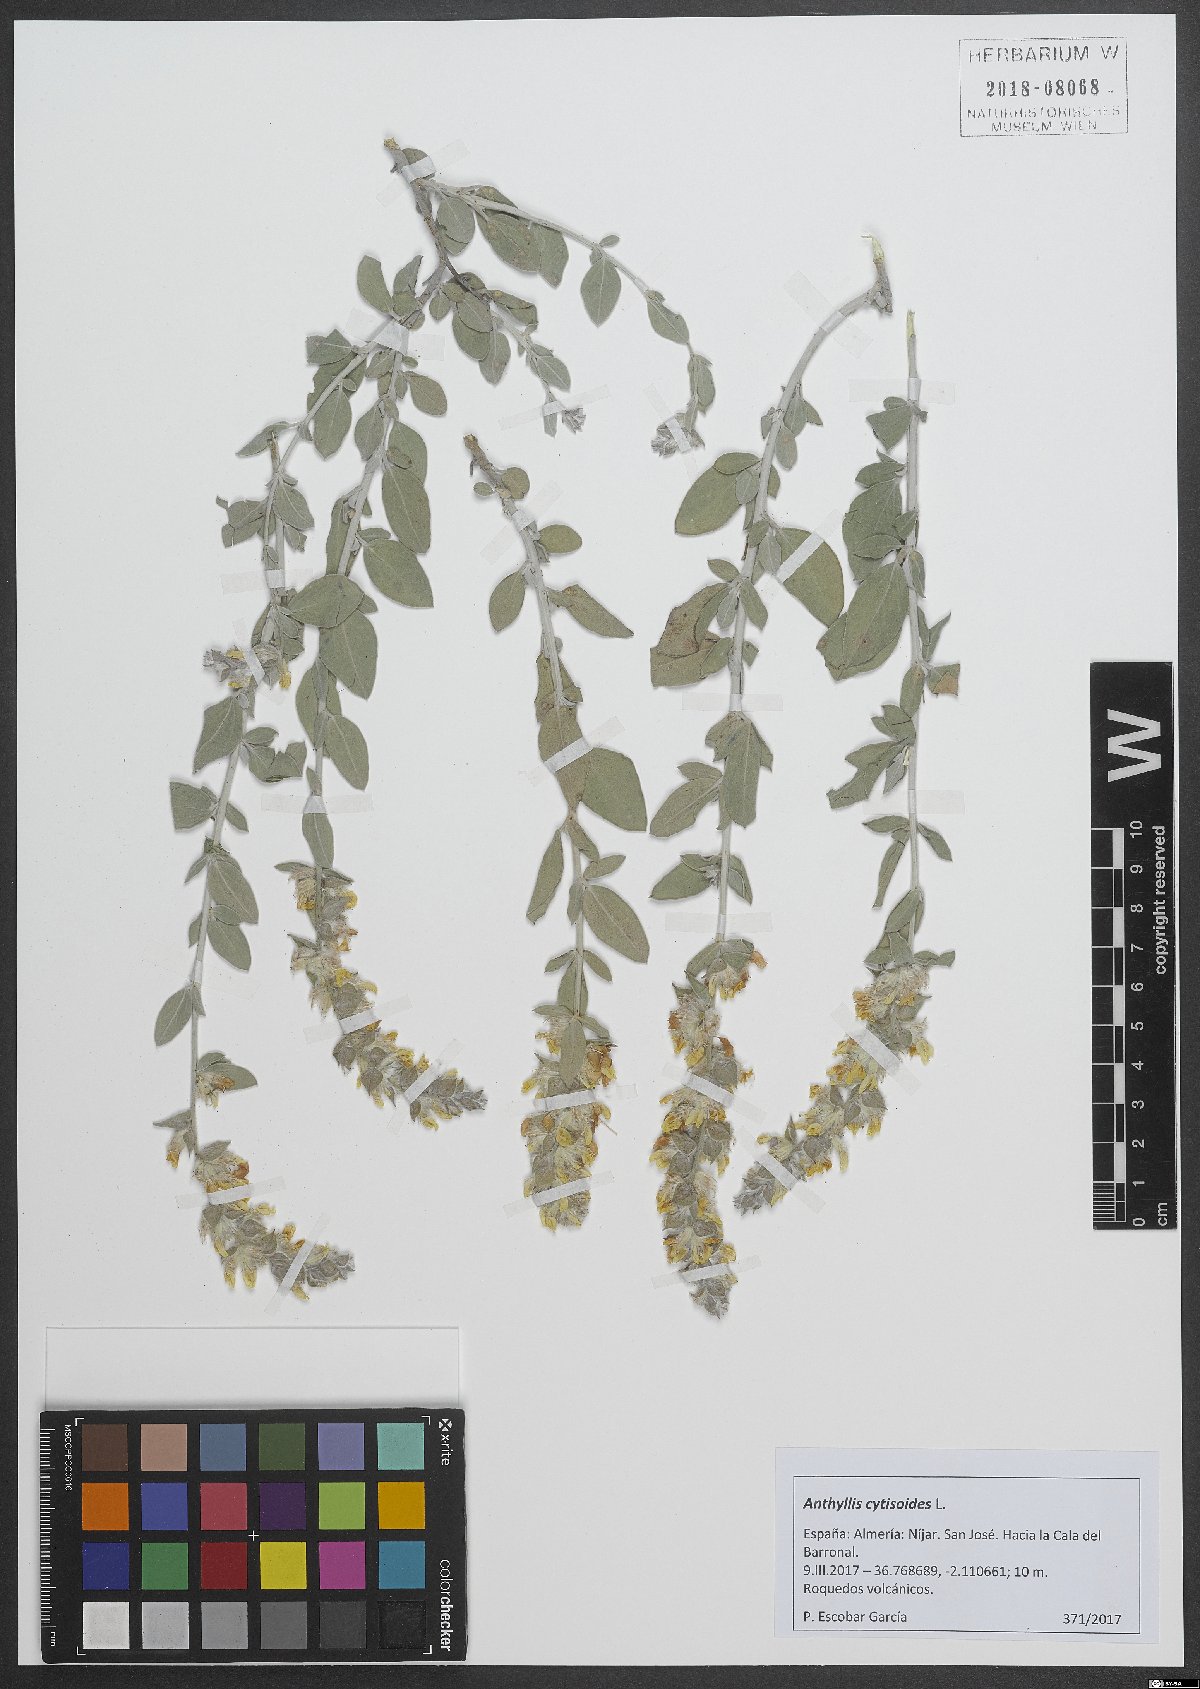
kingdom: Plantae
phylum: Tracheophyta
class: Magnoliopsida
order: Fabales
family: Fabaceae
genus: Anthyllis
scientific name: Anthyllis cytisoides
